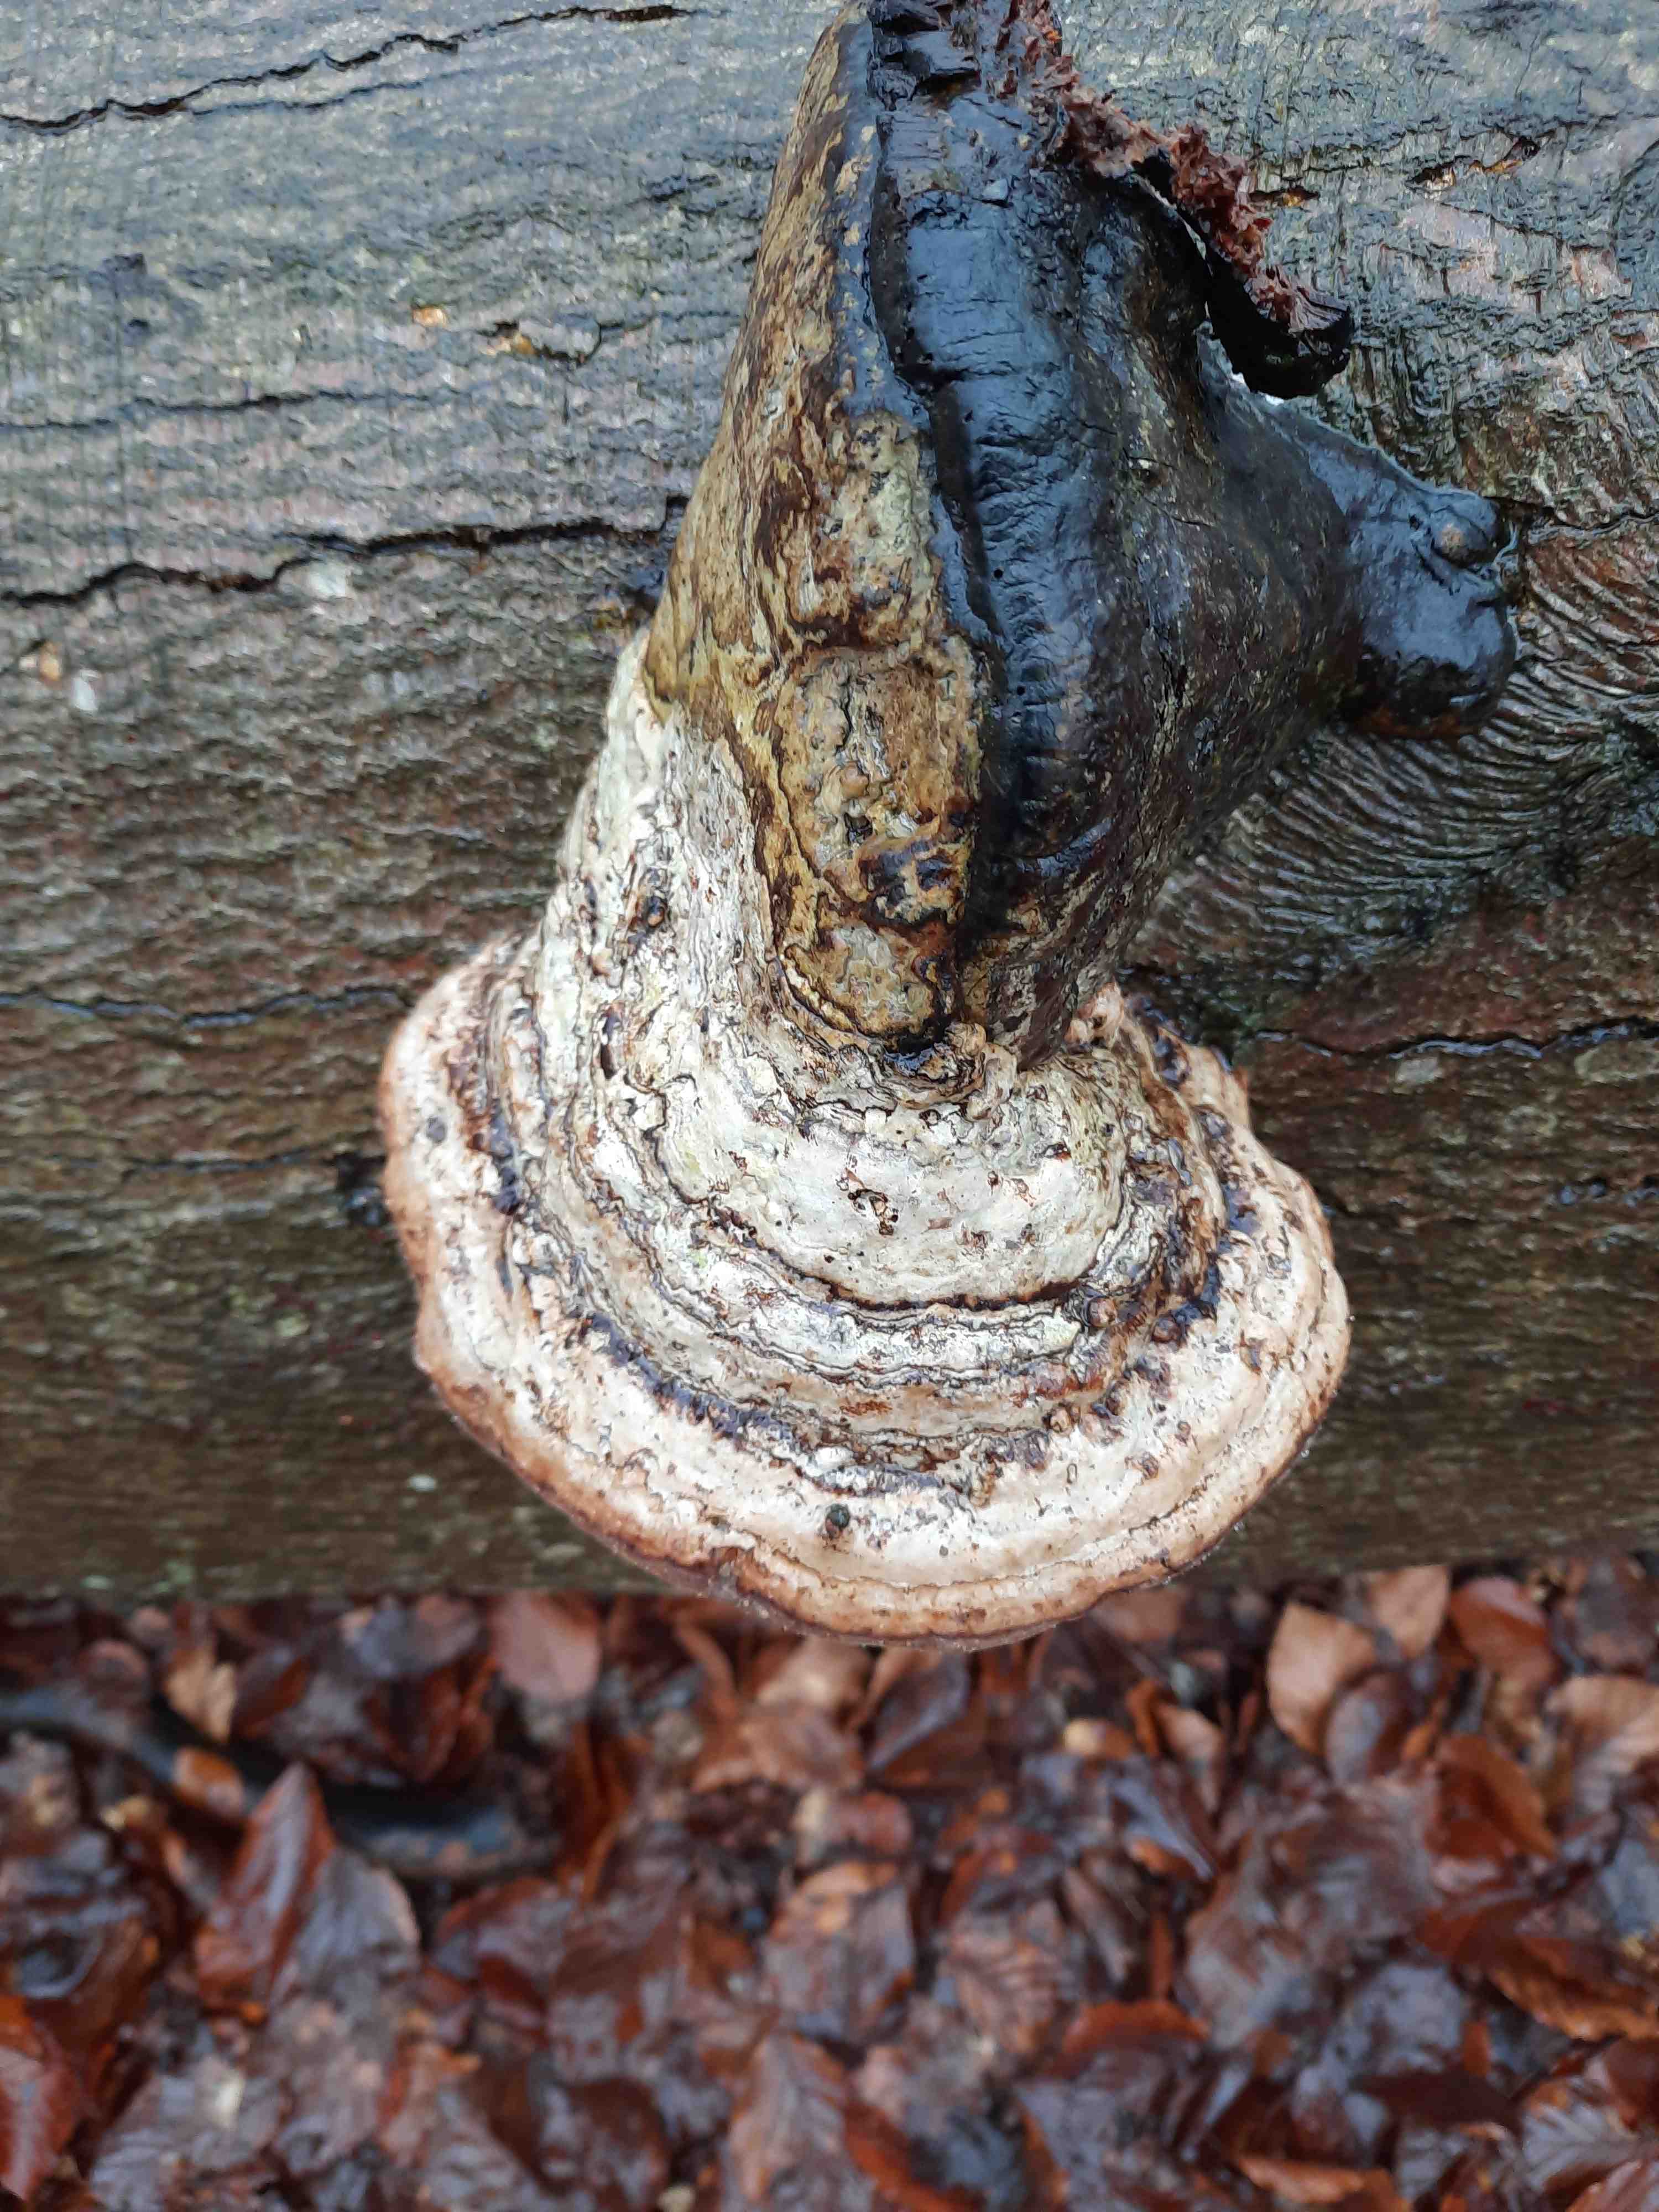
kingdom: Fungi
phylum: Basidiomycota
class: Agaricomycetes
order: Polyporales
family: Polyporaceae
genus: Fomes
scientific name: Fomes fomentarius
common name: tøndersvamp
